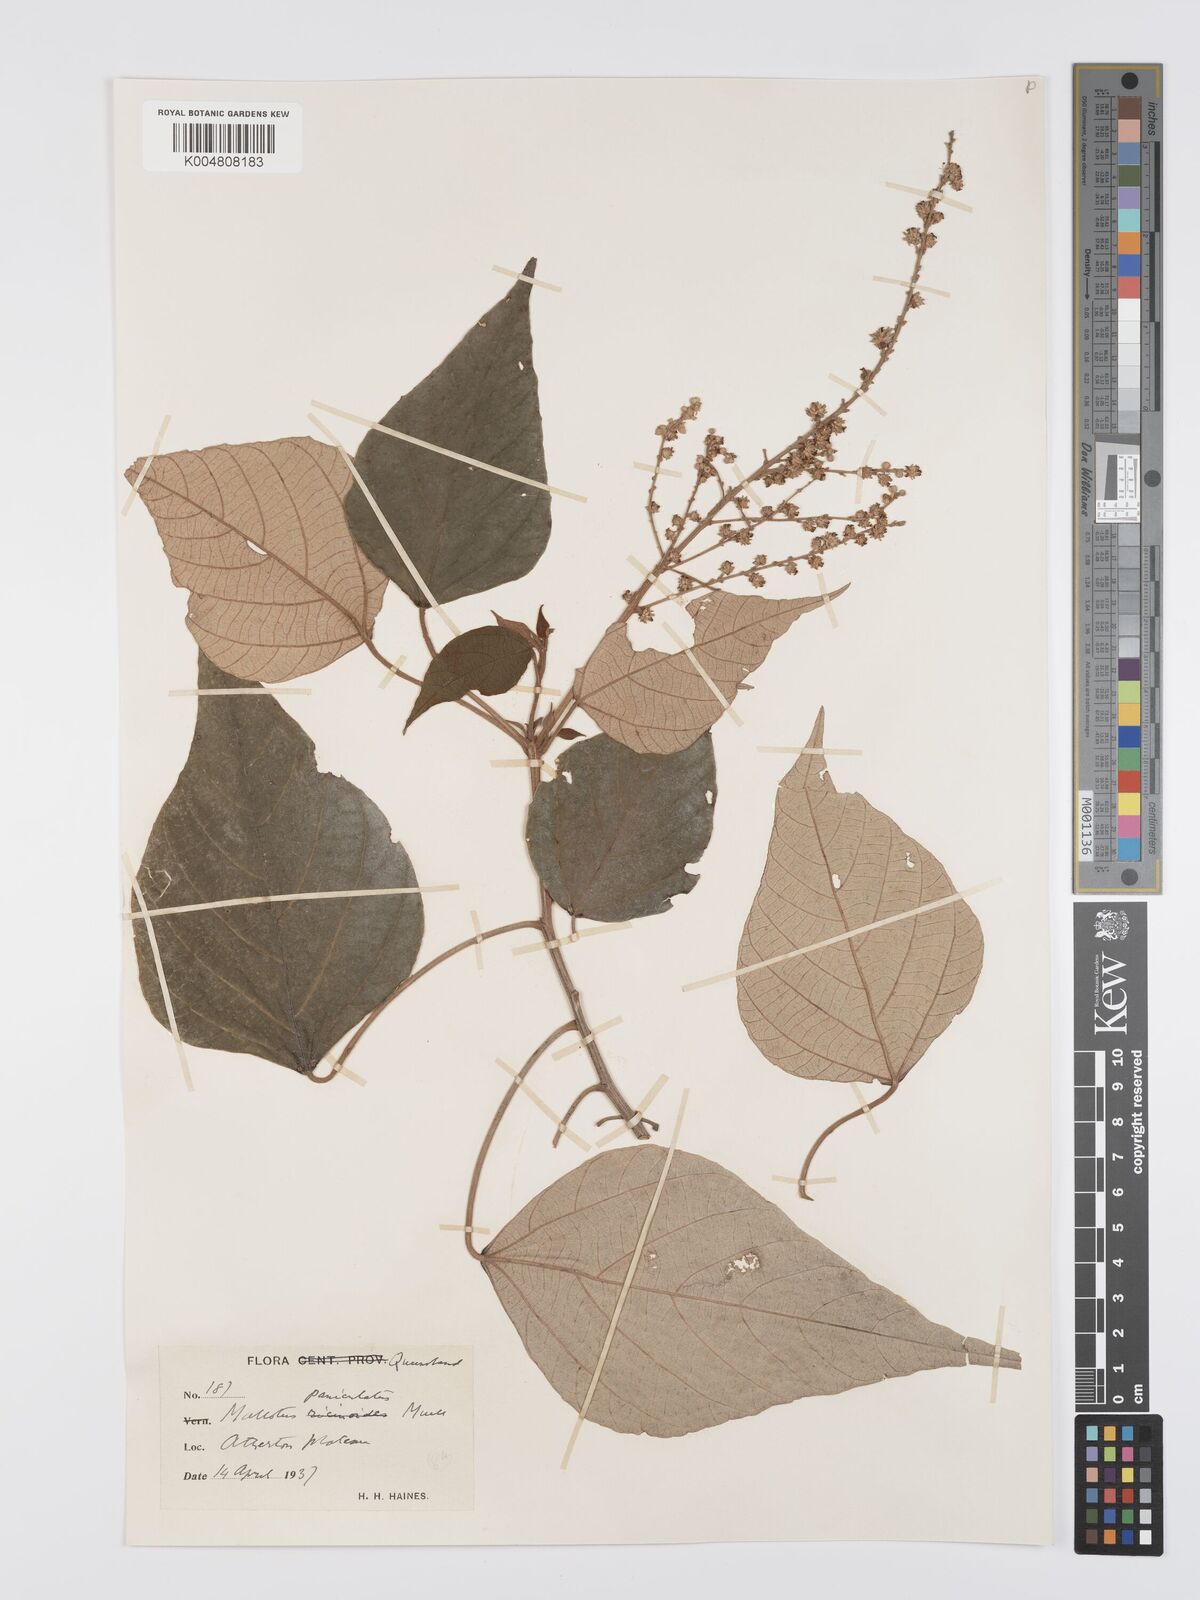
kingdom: Plantae
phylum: Tracheophyta
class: Magnoliopsida
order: Malpighiales
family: Euphorbiaceae
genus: Mallotus
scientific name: Mallotus paniculatus
